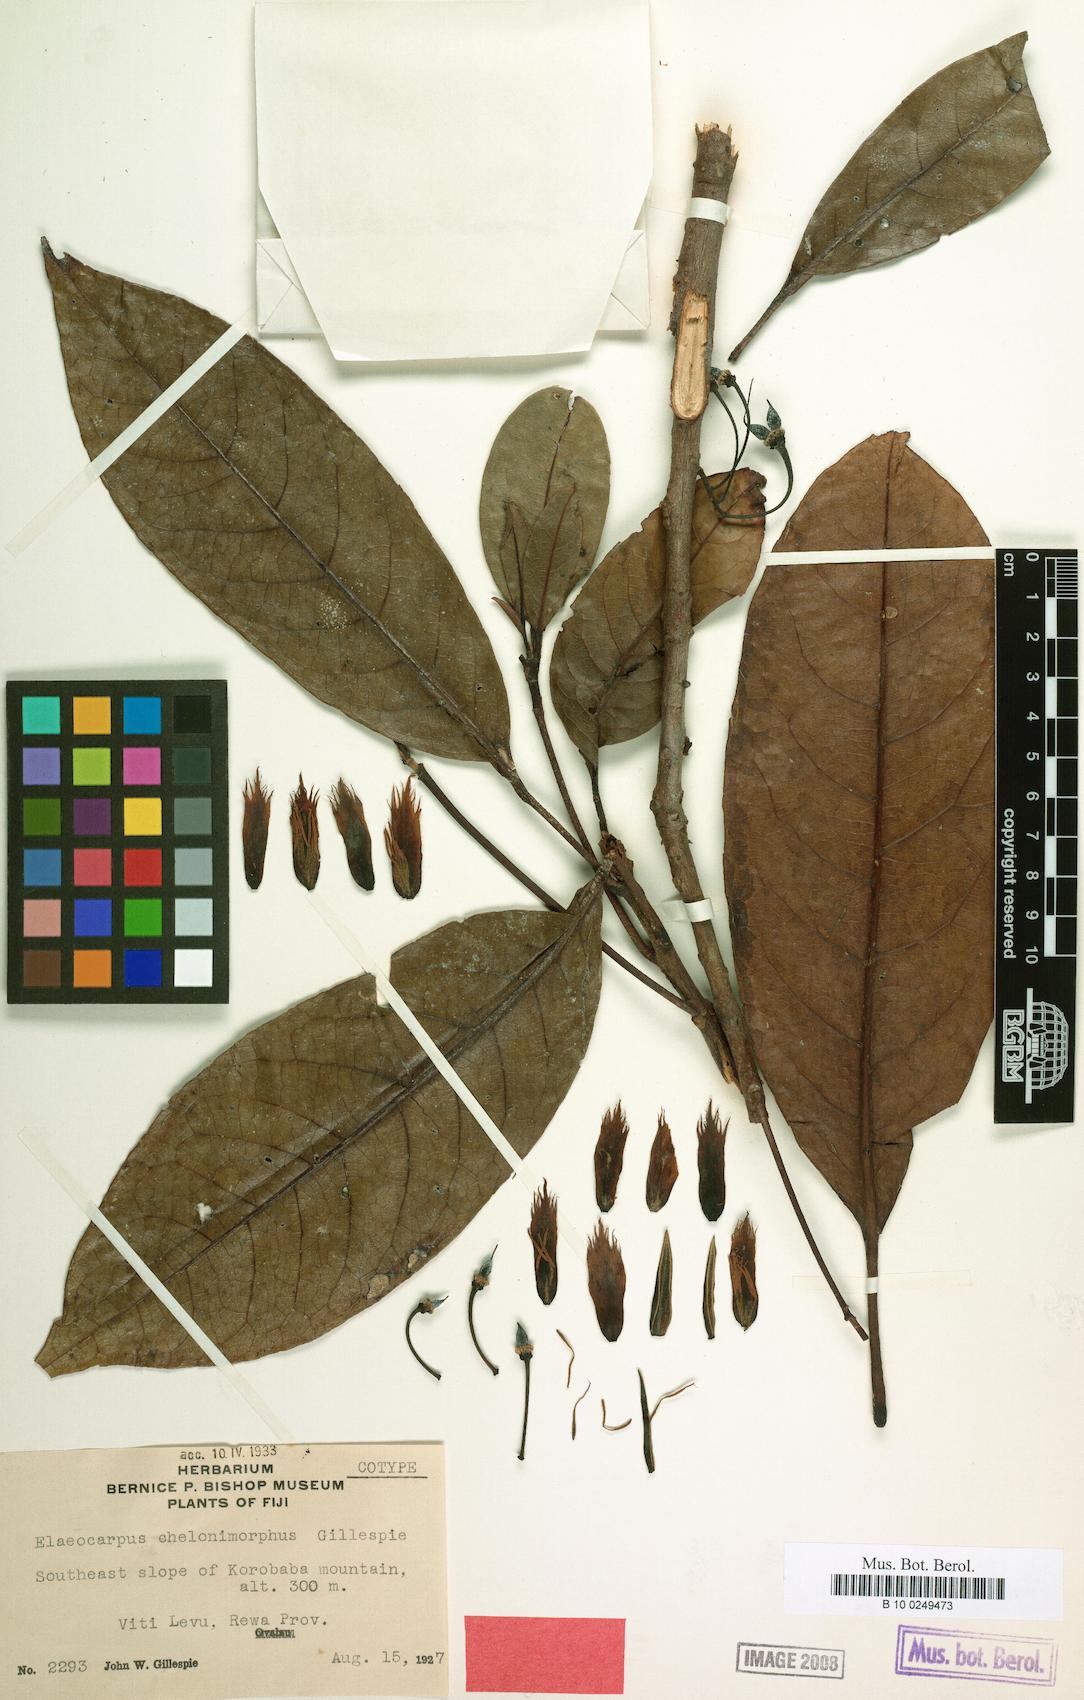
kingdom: Plantae
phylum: Tracheophyta
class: Magnoliopsida
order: Oxalidales
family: Elaeocarpaceae
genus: Elaeocarpus
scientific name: Elaeocarpus chelonimorphus
